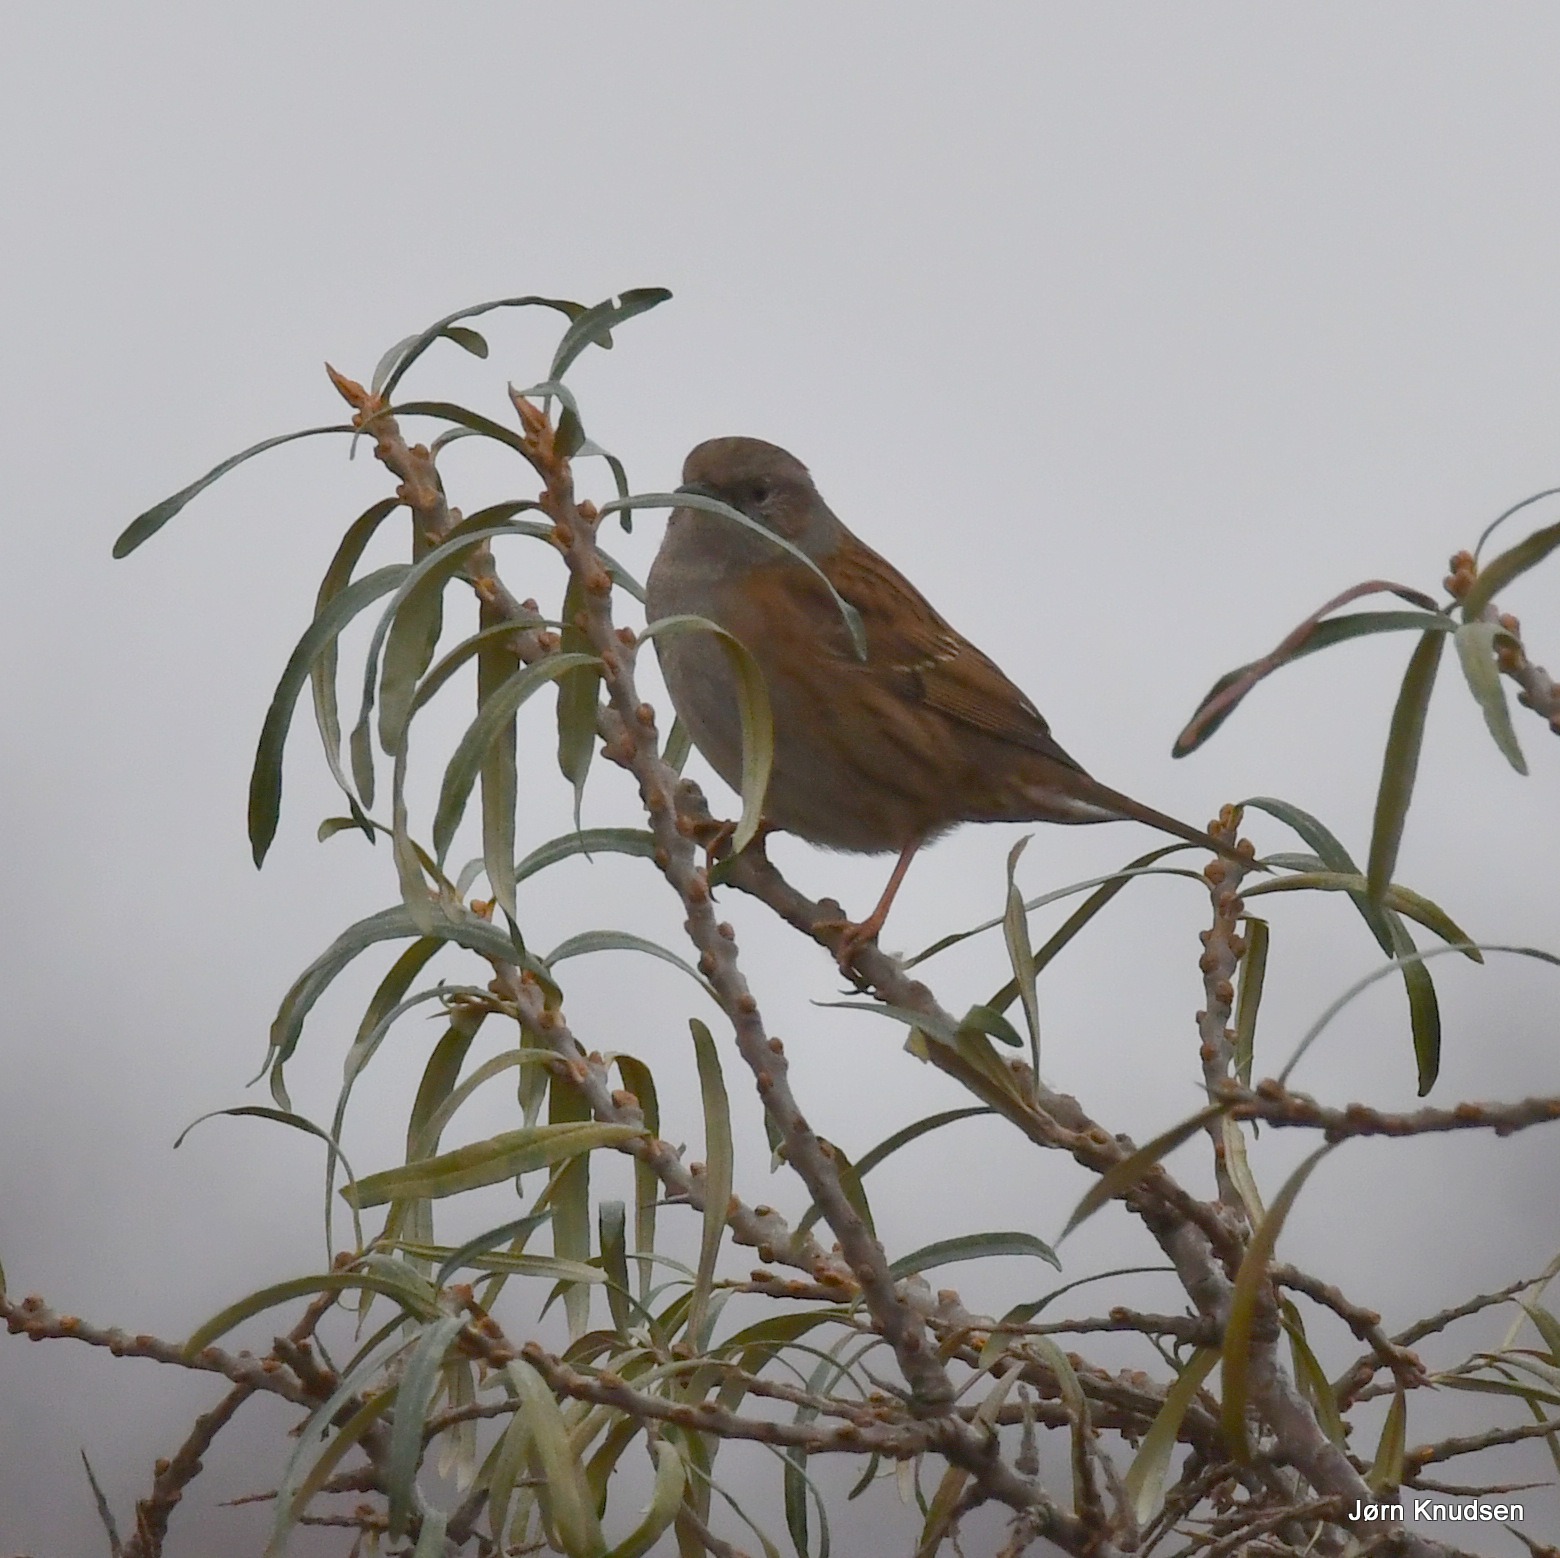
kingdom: Animalia
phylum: Chordata
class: Aves
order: Passeriformes
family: Prunellidae
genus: Prunella
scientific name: Prunella modularis
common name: Jernspurv
